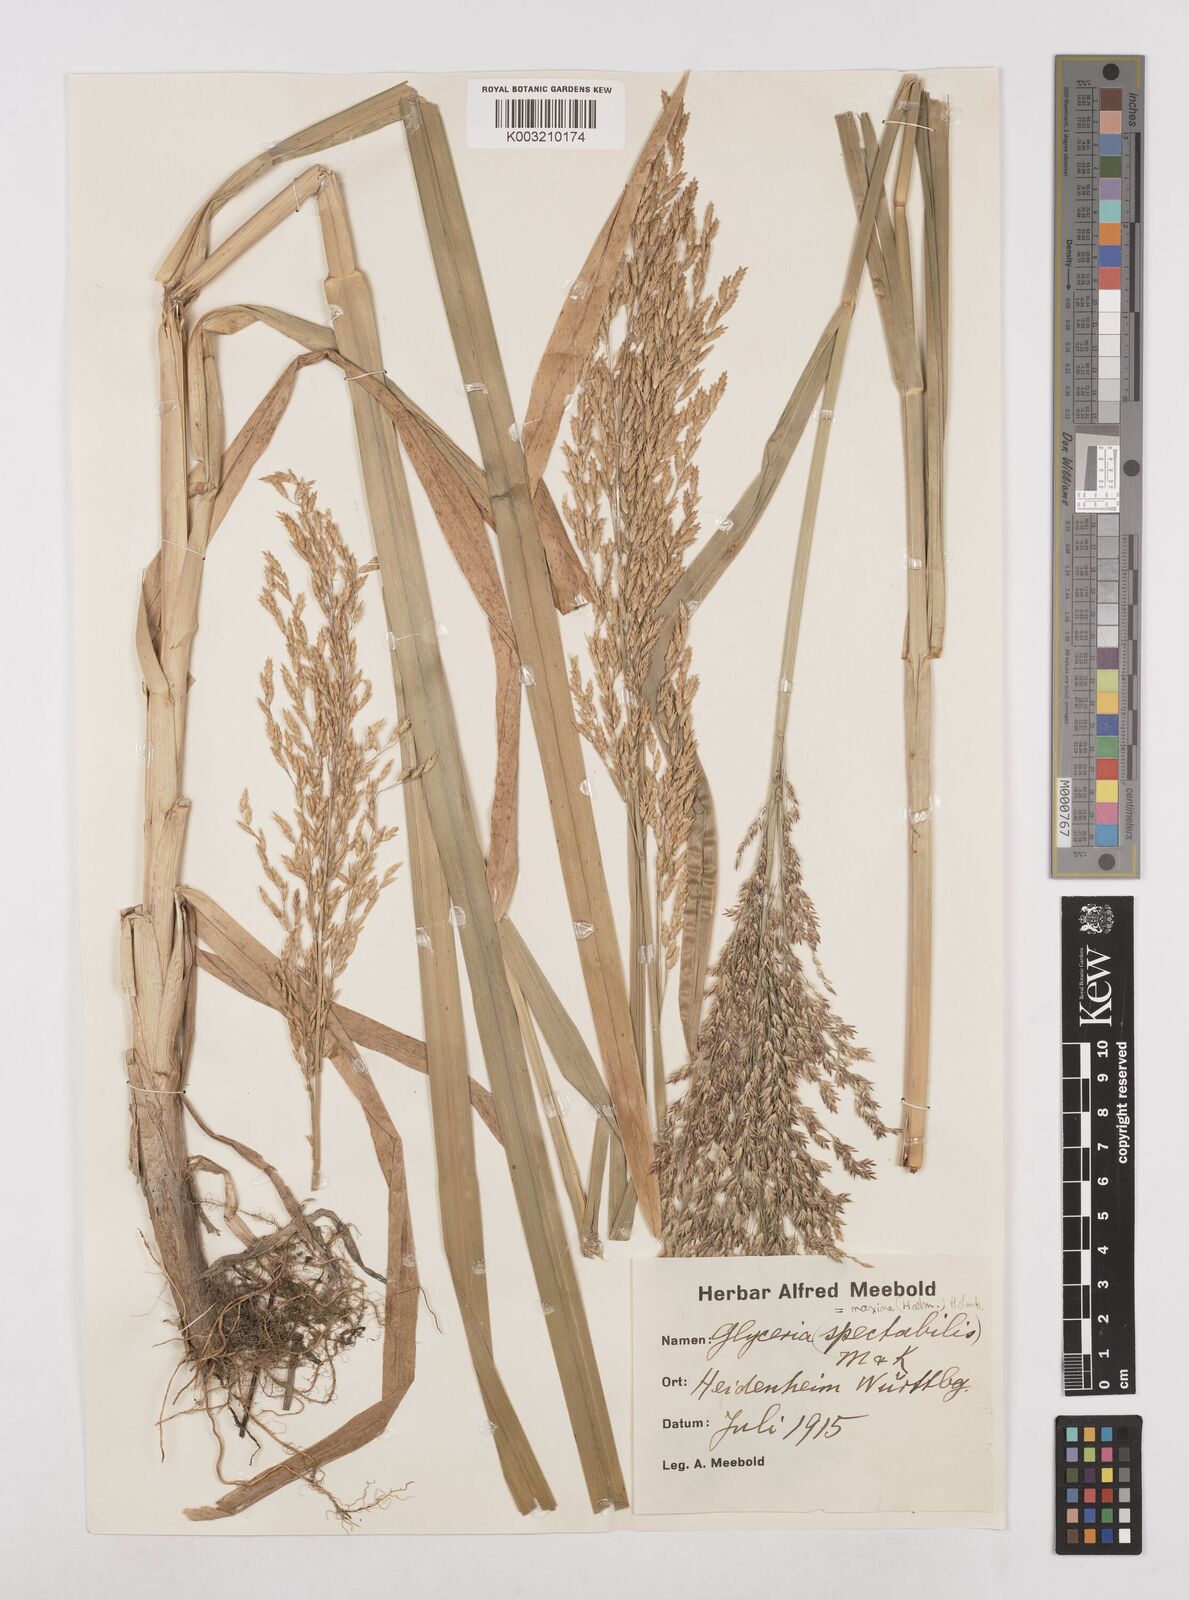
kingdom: Plantae
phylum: Tracheophyta
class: Liliopsida
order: Poales
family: Poaceae
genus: Glyceria
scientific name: Glyceria maxima
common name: Reed mannagrass
